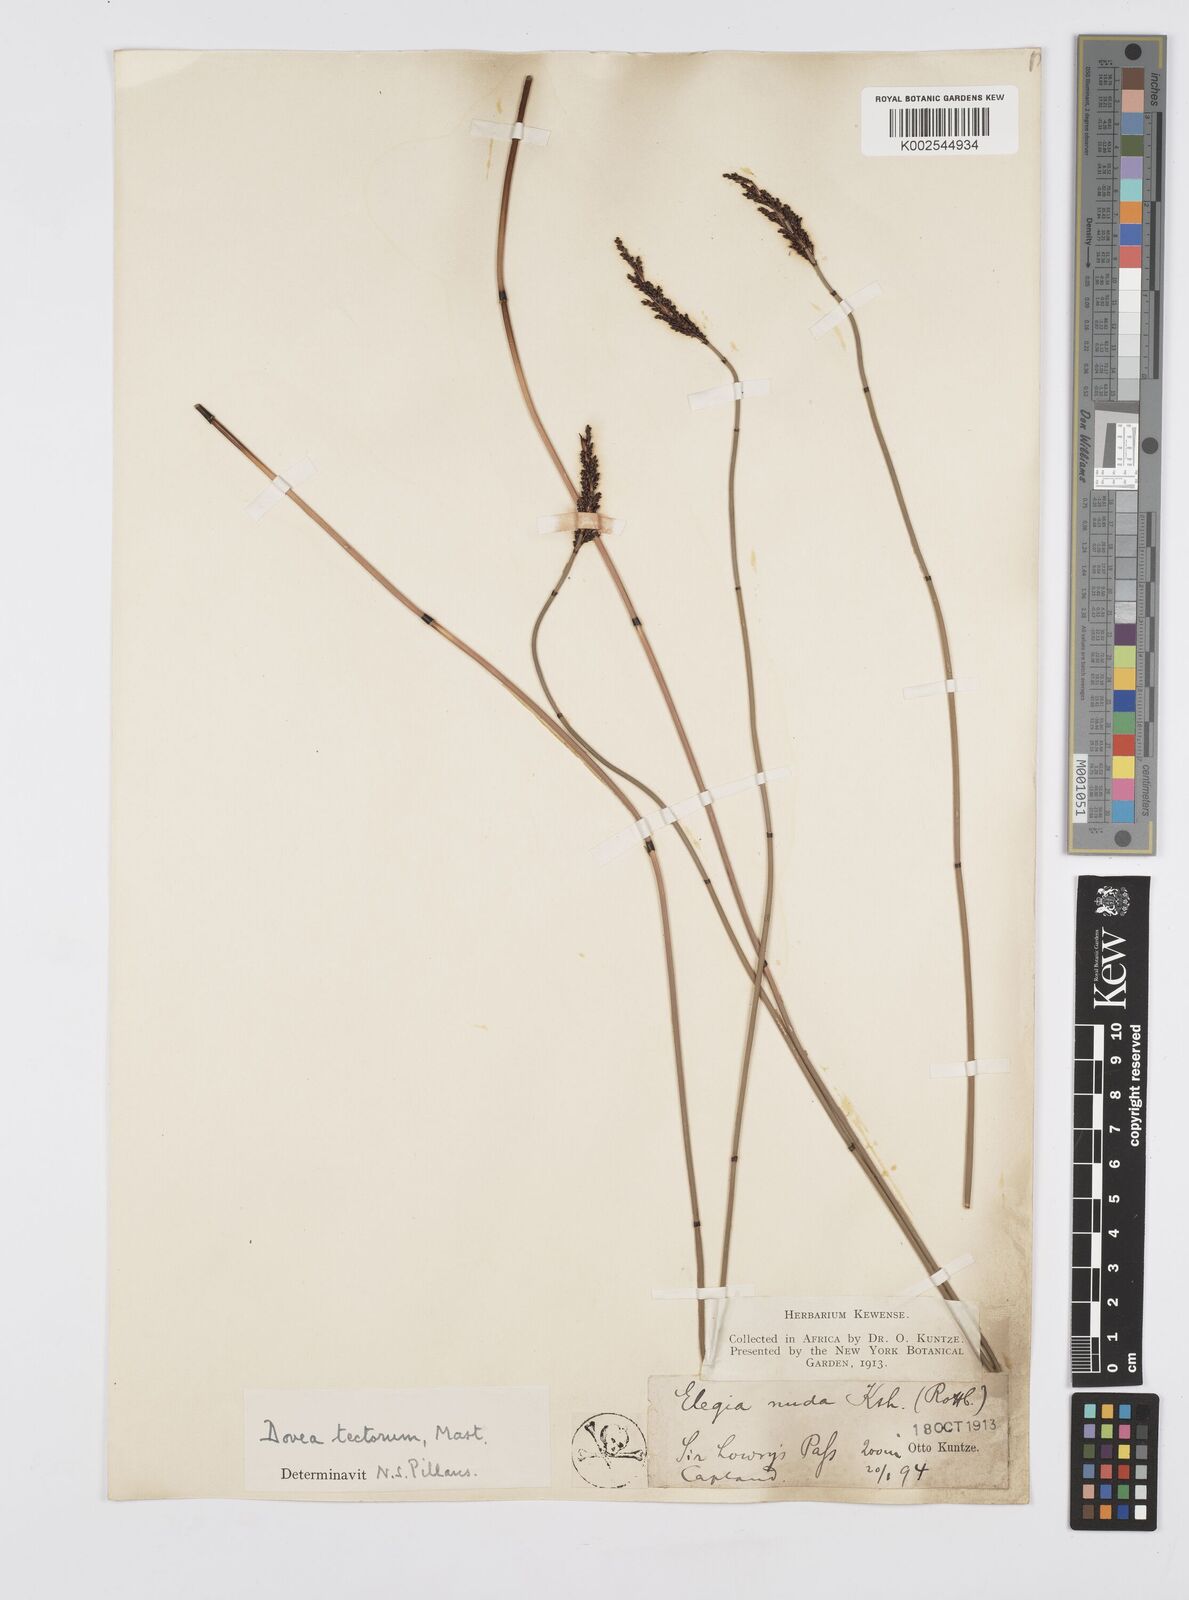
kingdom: Plantae
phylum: Tracheophyta
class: Liliopsida
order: Poales
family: Restionaceae
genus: Elegia
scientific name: Elegia tectorum
